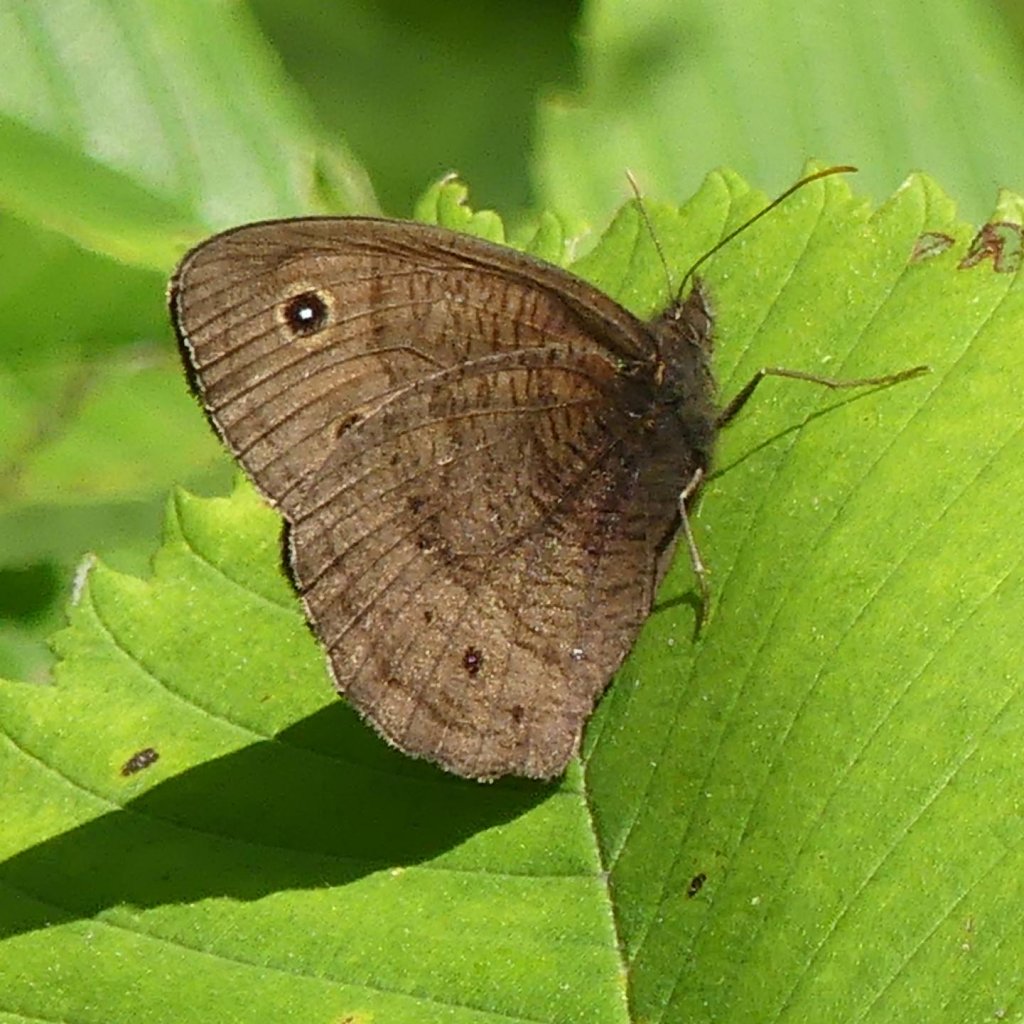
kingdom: Animalia
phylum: Arthropoda
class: Insecta
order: Lepidoptera
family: Nymphalidae
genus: Cercyonis
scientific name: Cercyonis pegala
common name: Common Wood-Nymph
